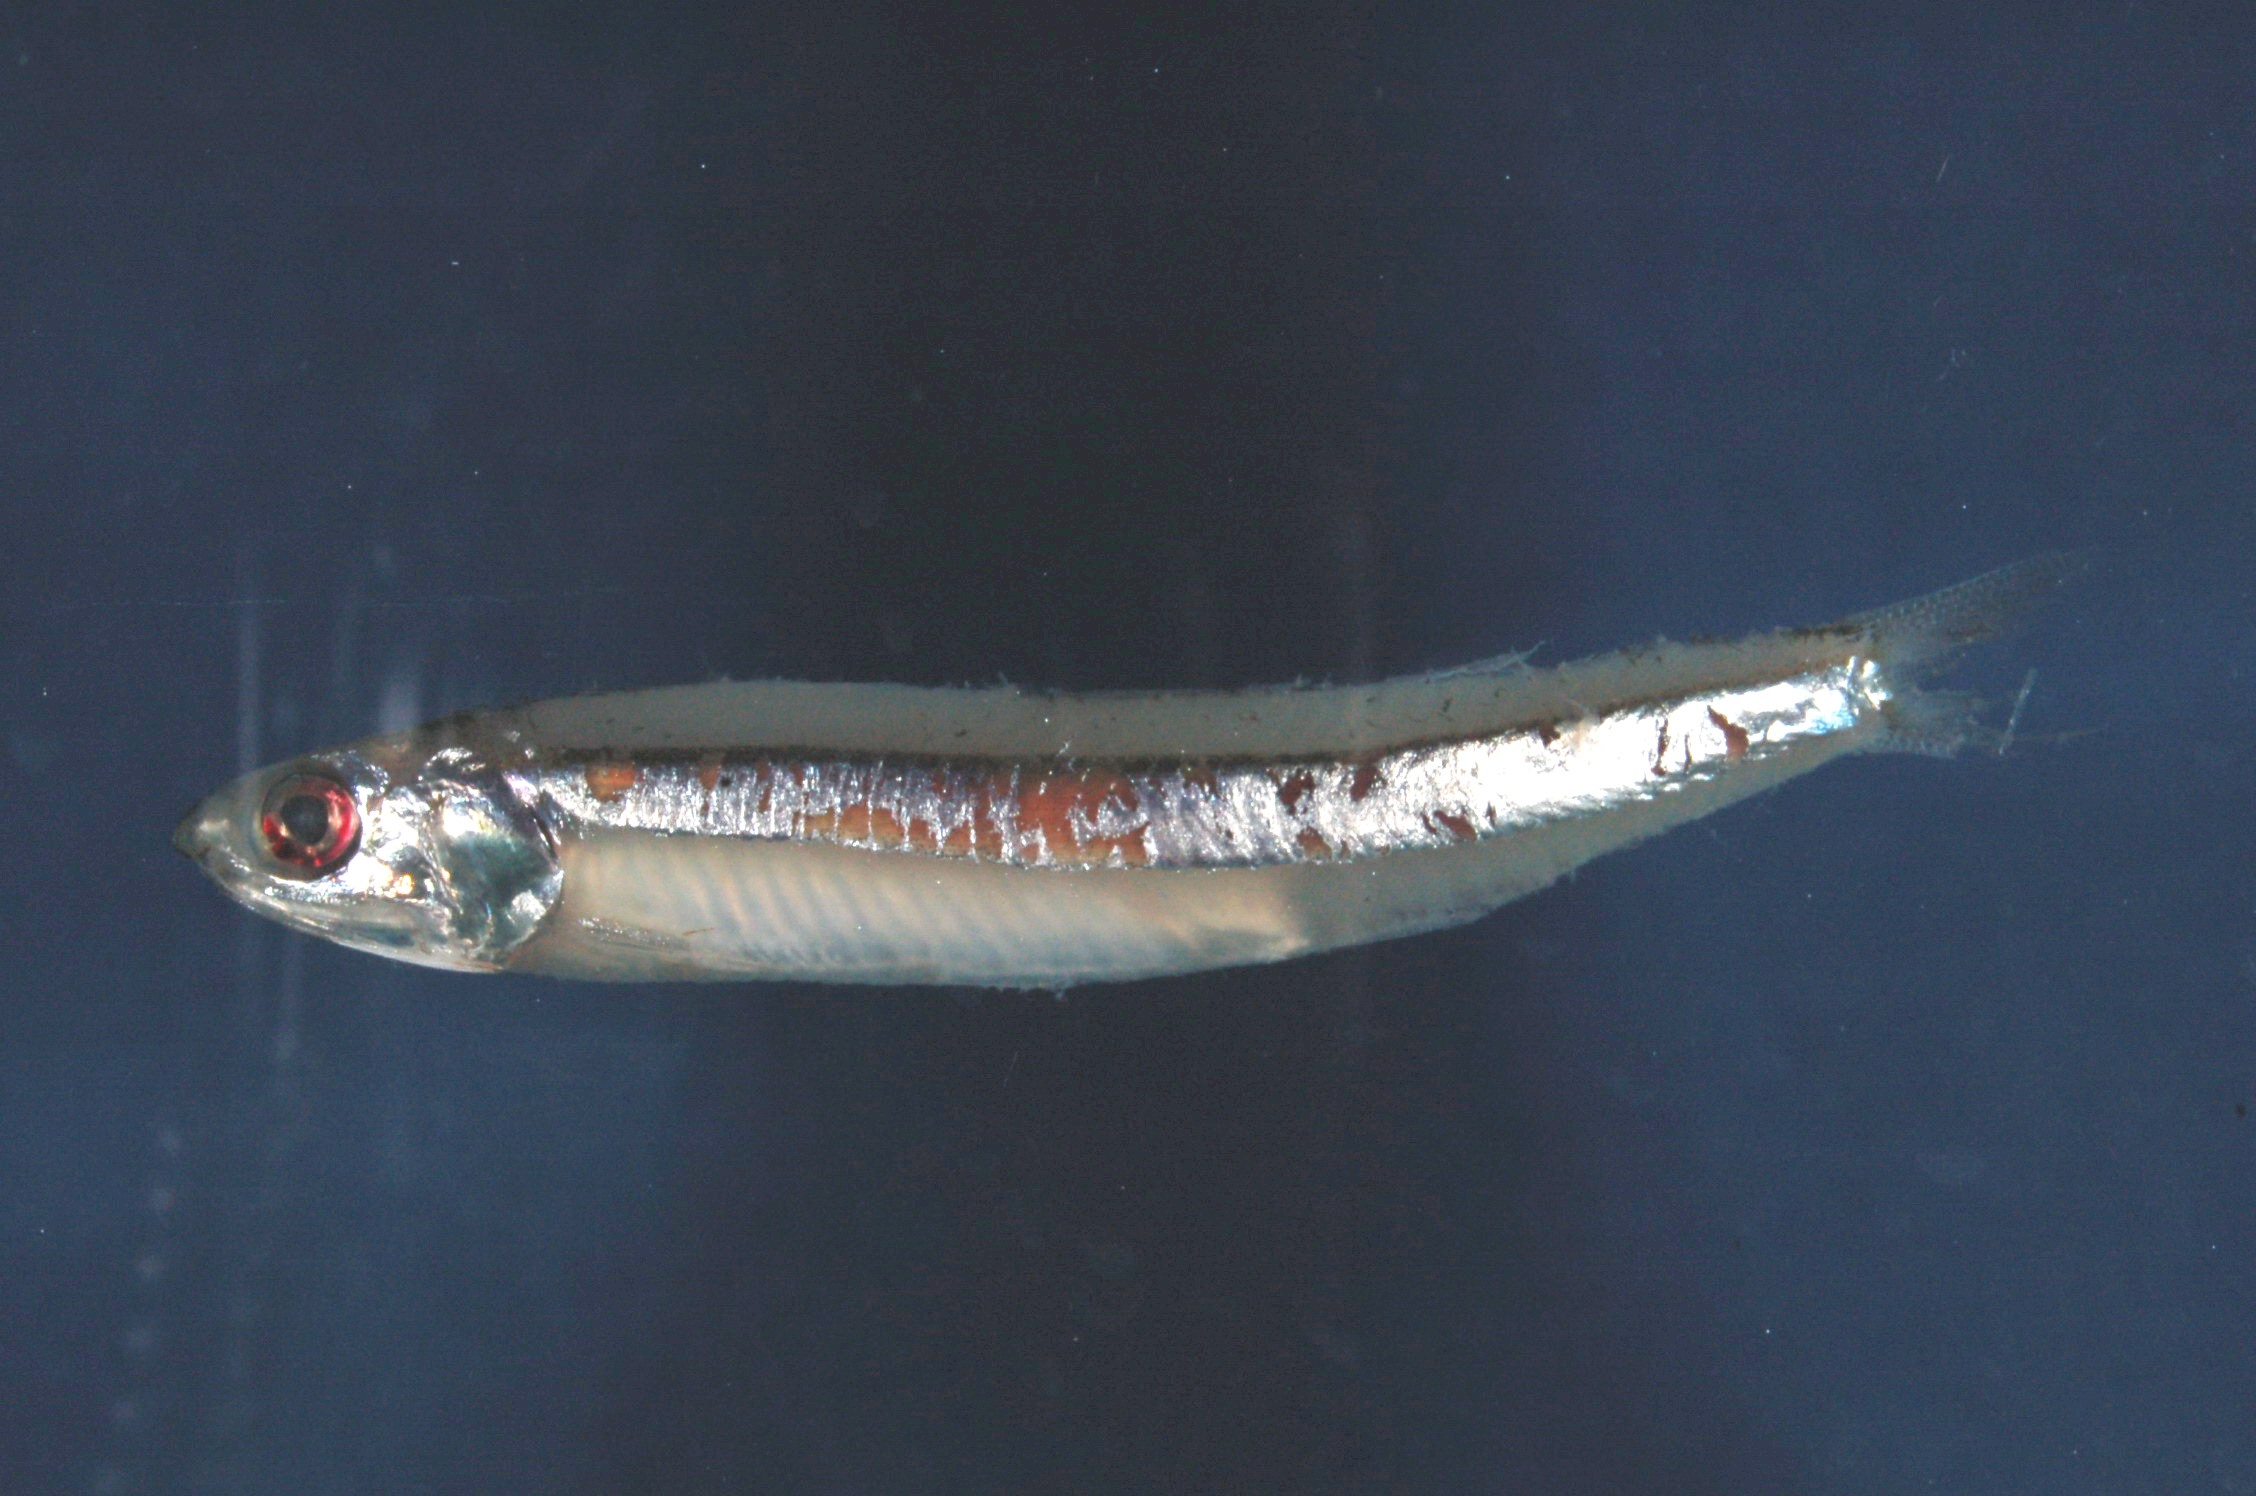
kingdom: Animalia
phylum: Chordata
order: Clupeiformes
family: Engraulidae
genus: Stolephorus
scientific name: Stolephorus holodon
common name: Natal anchovy
